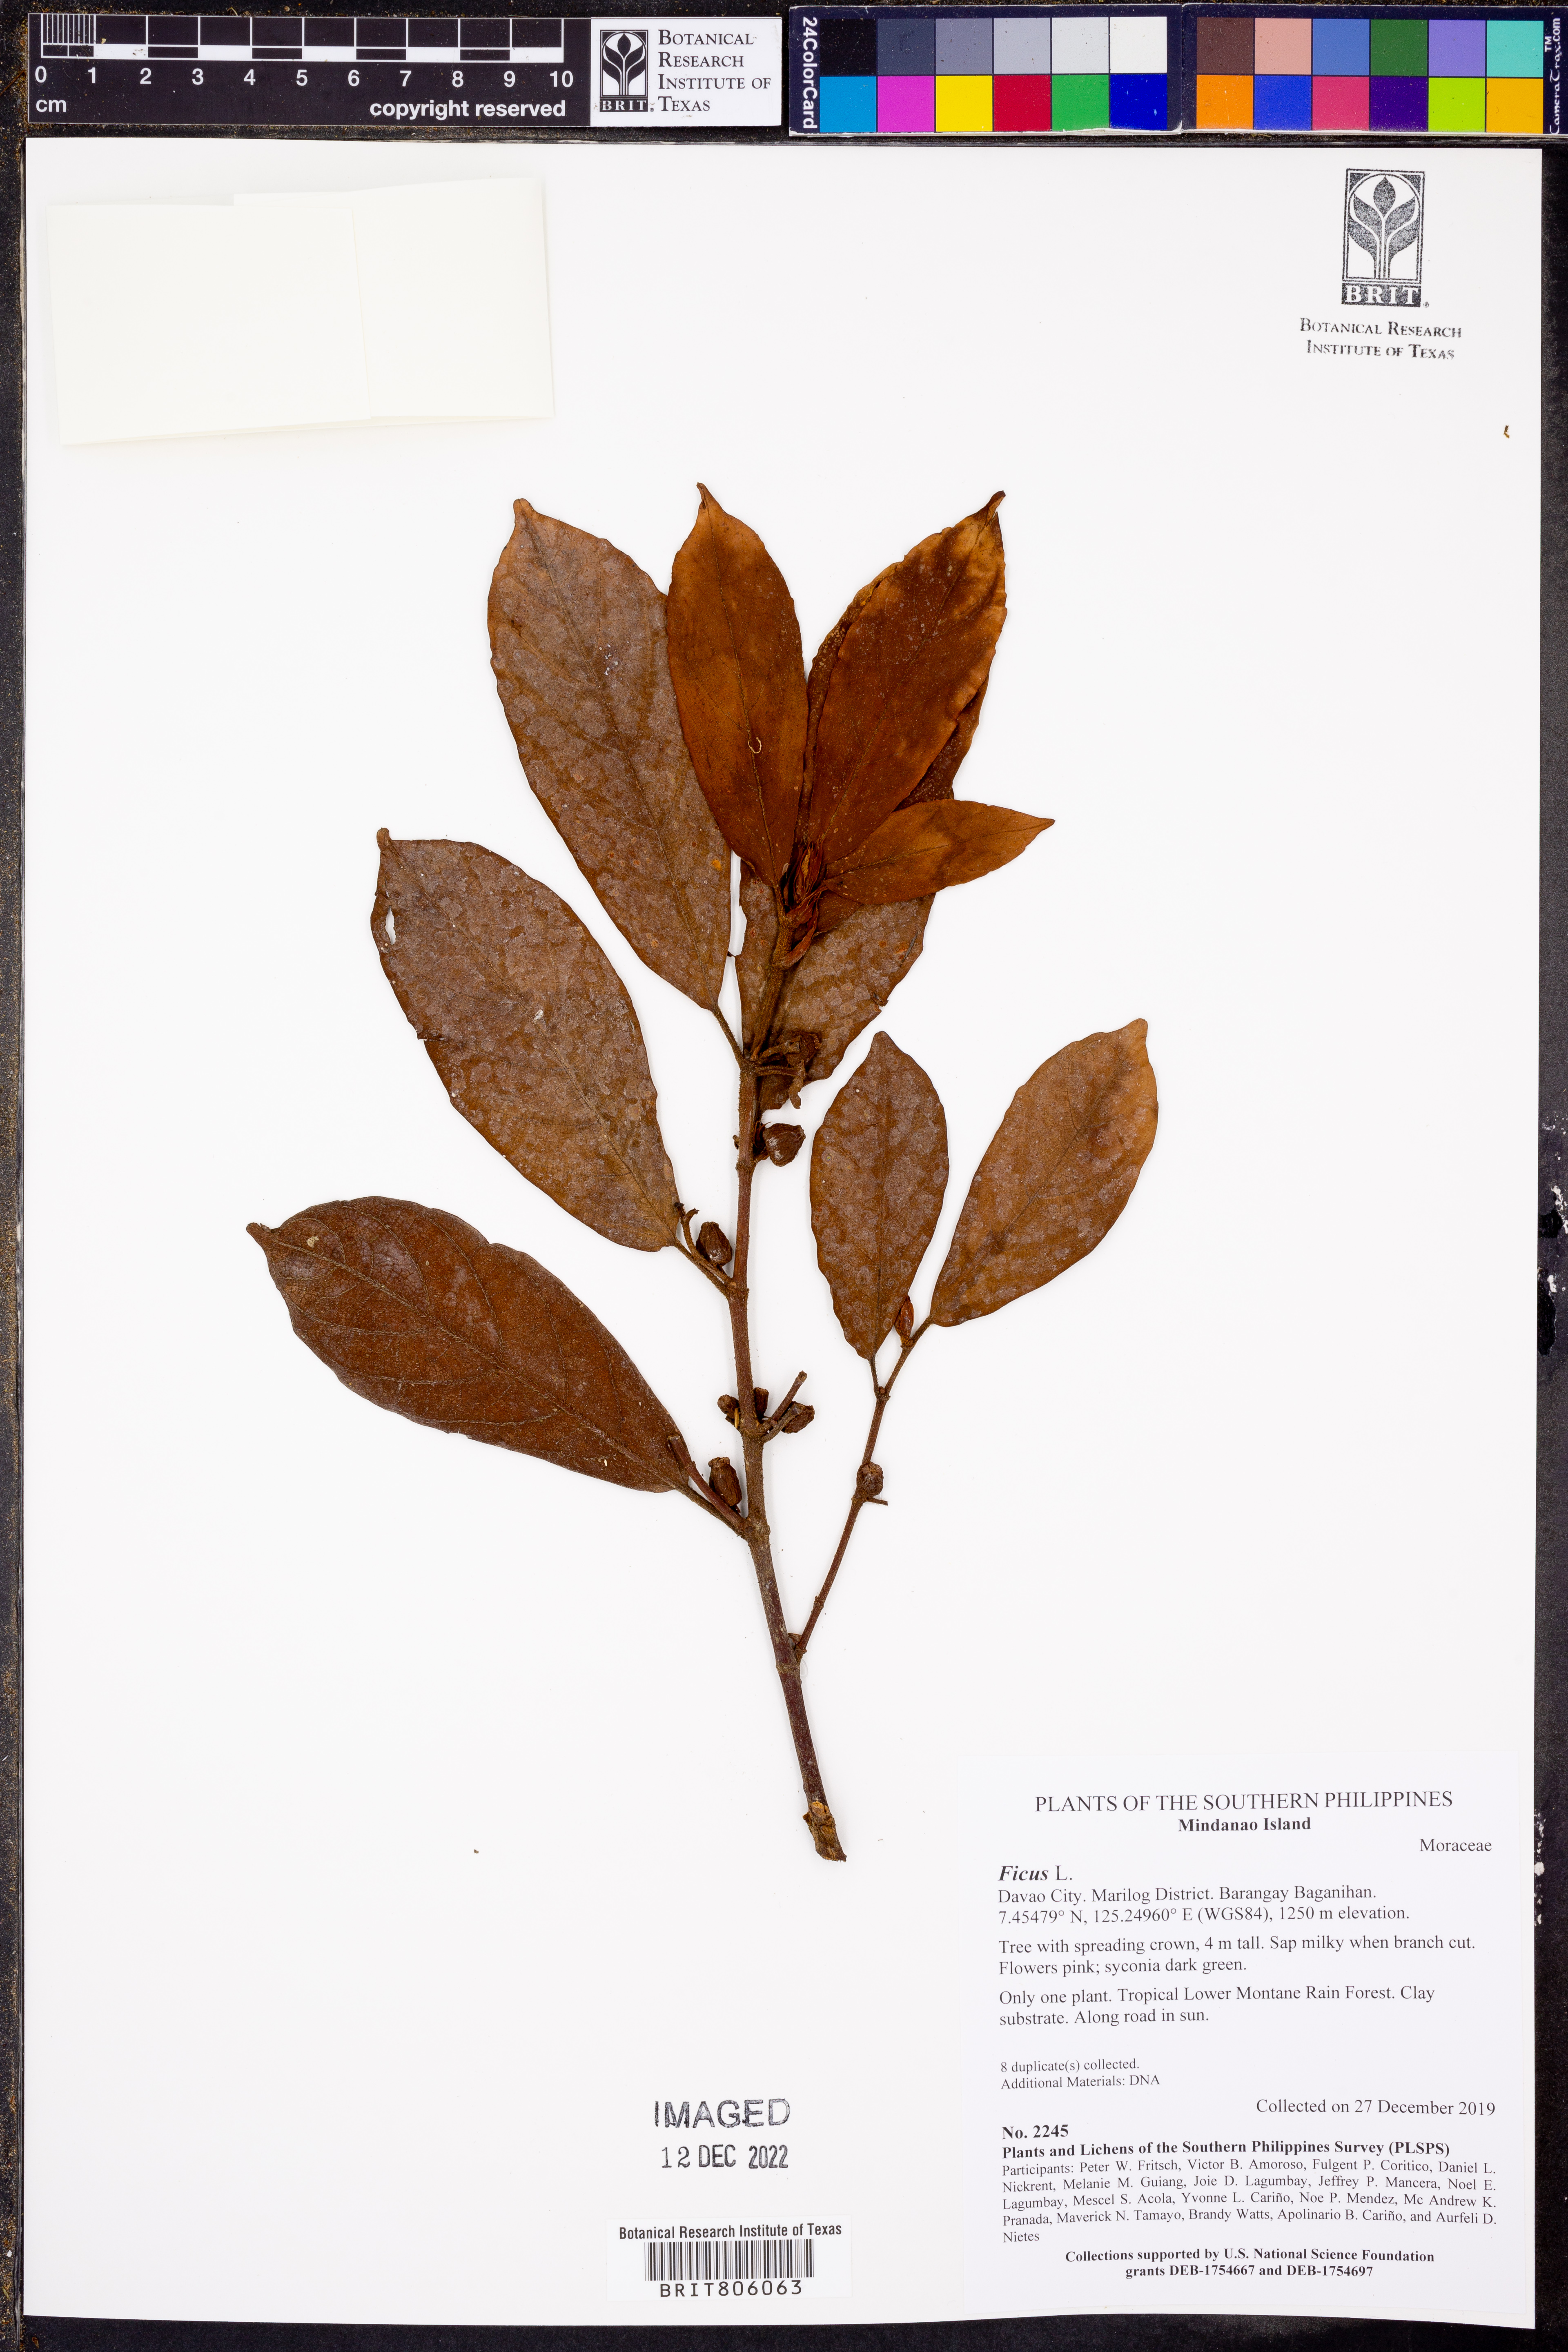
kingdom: Plantae
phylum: Tracheophyta
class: Magnoliopsida
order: Rosales
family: Moraceae
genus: Ficus
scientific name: Ficus
